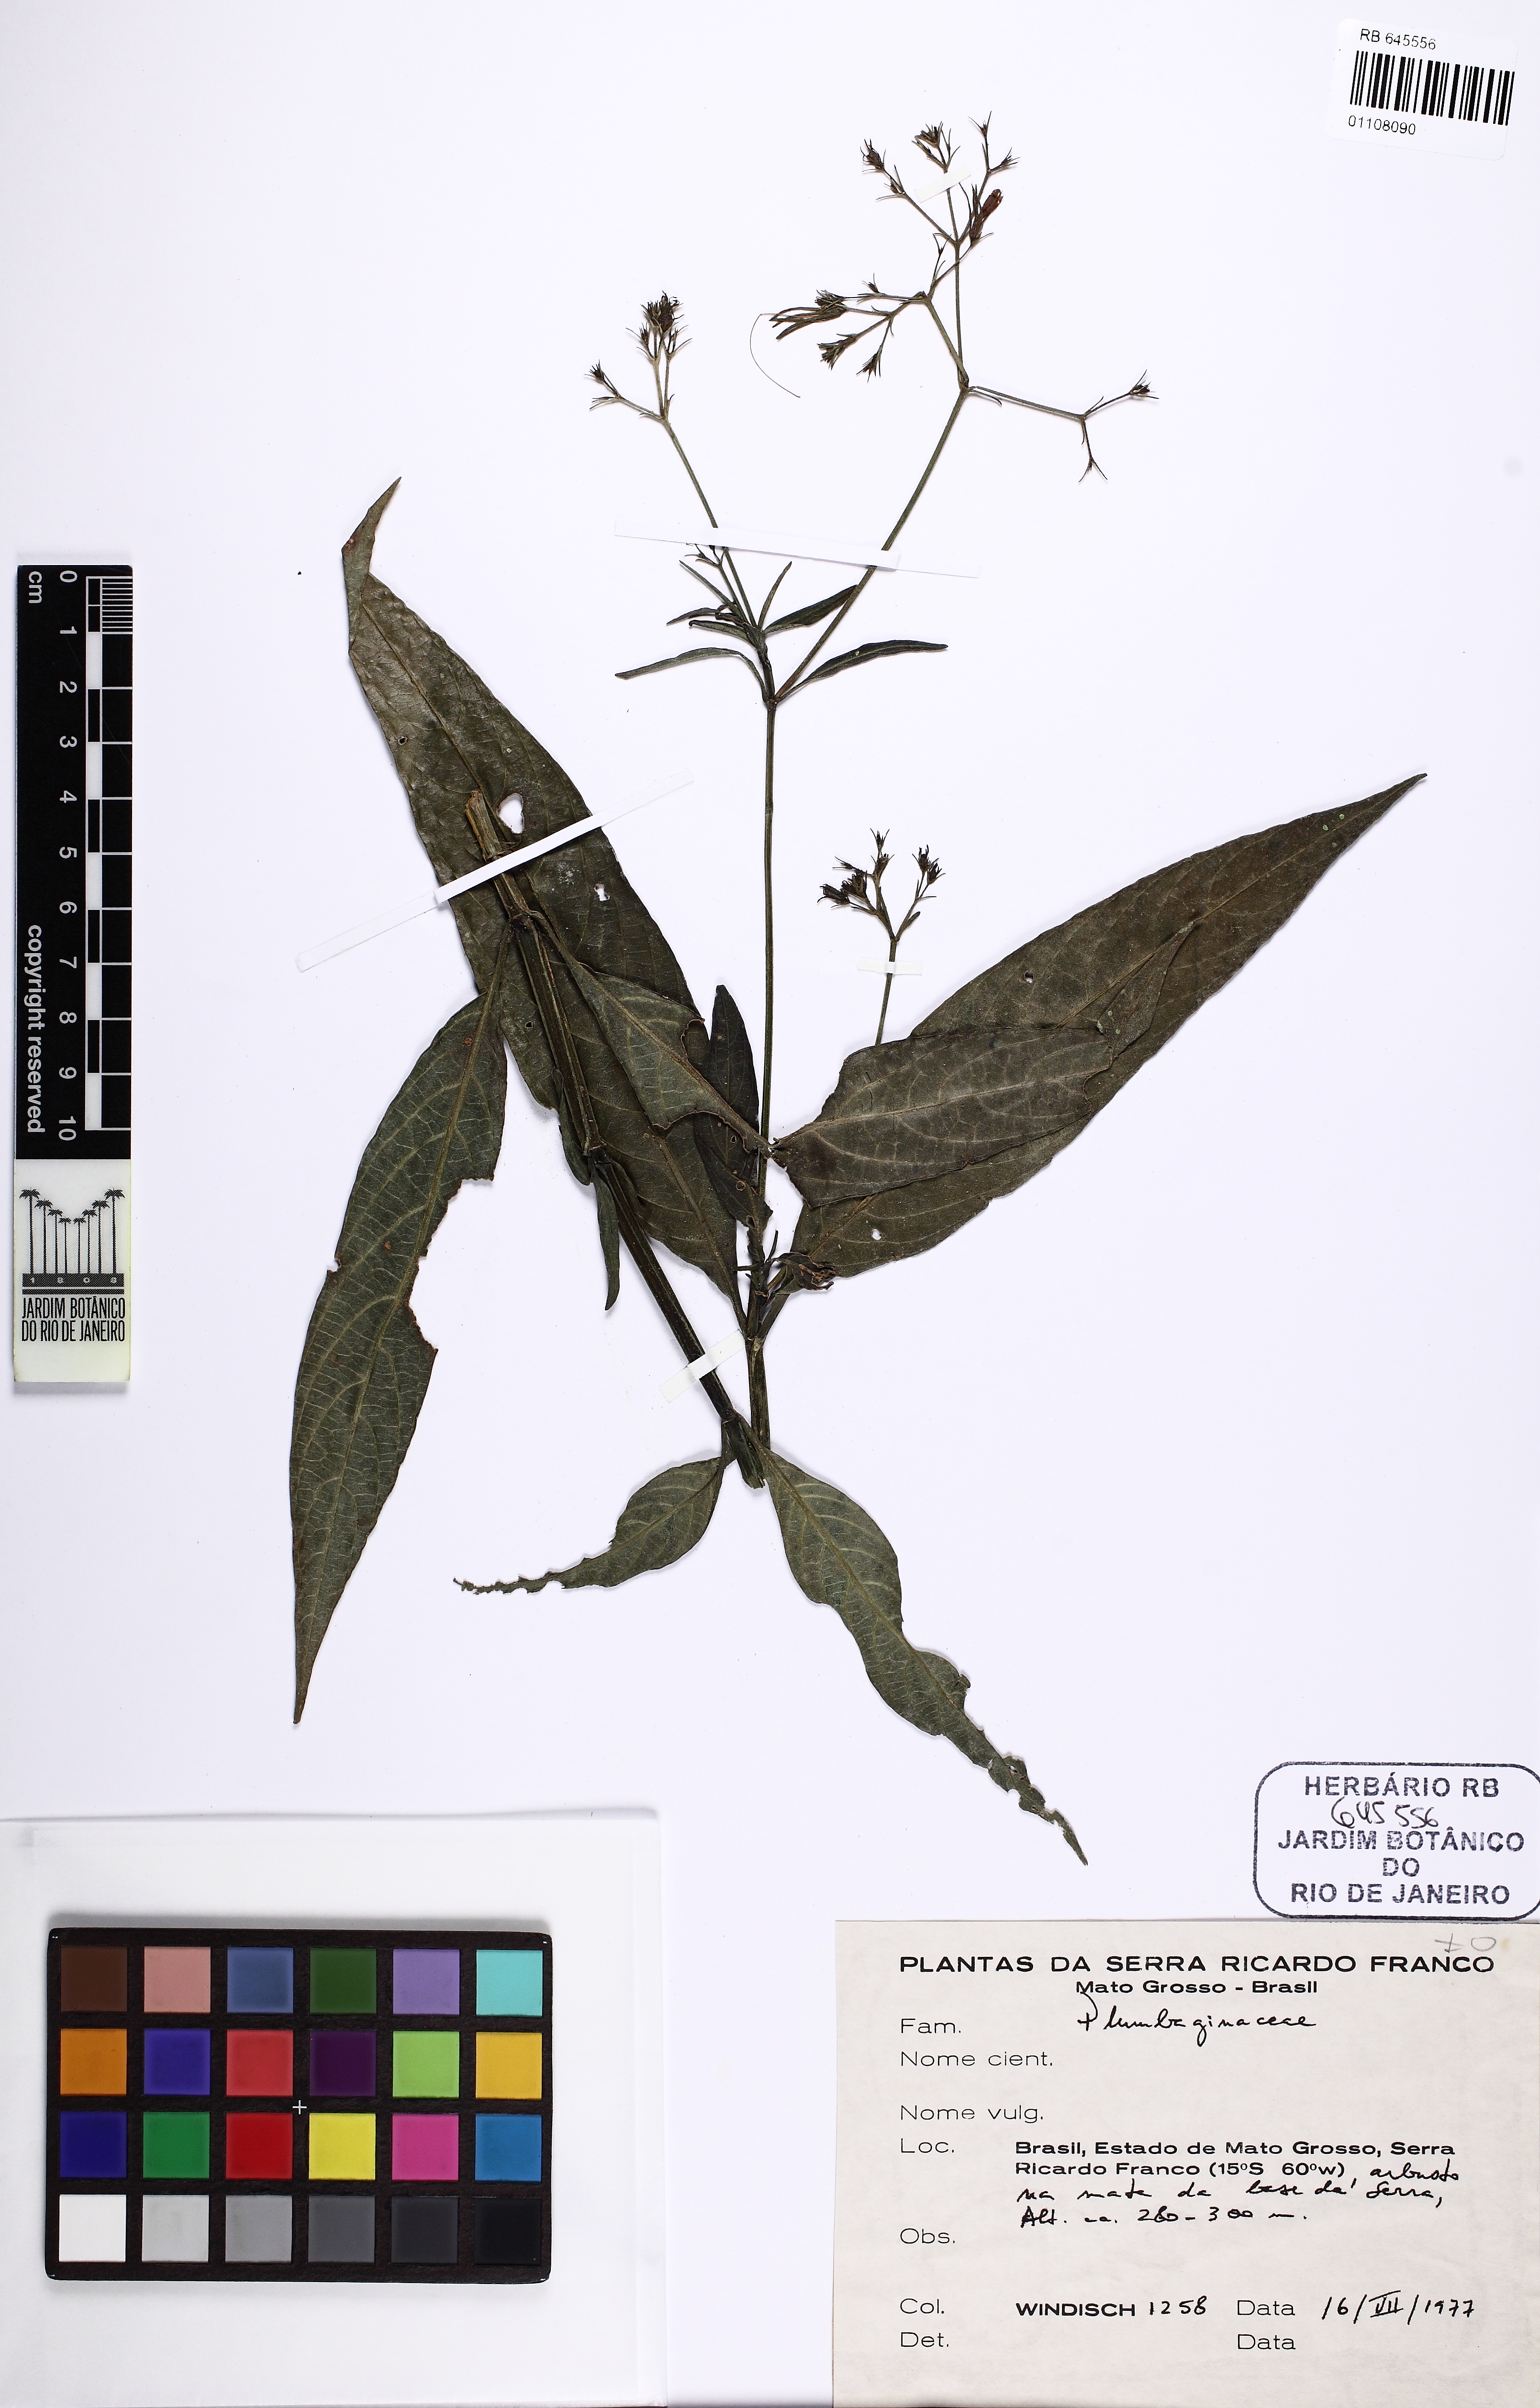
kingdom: Plantae
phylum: Tracheophyta
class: Magnoliopsida
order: Caryophyllales
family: Plumbaginaceae
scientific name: Plumbaginaceae
